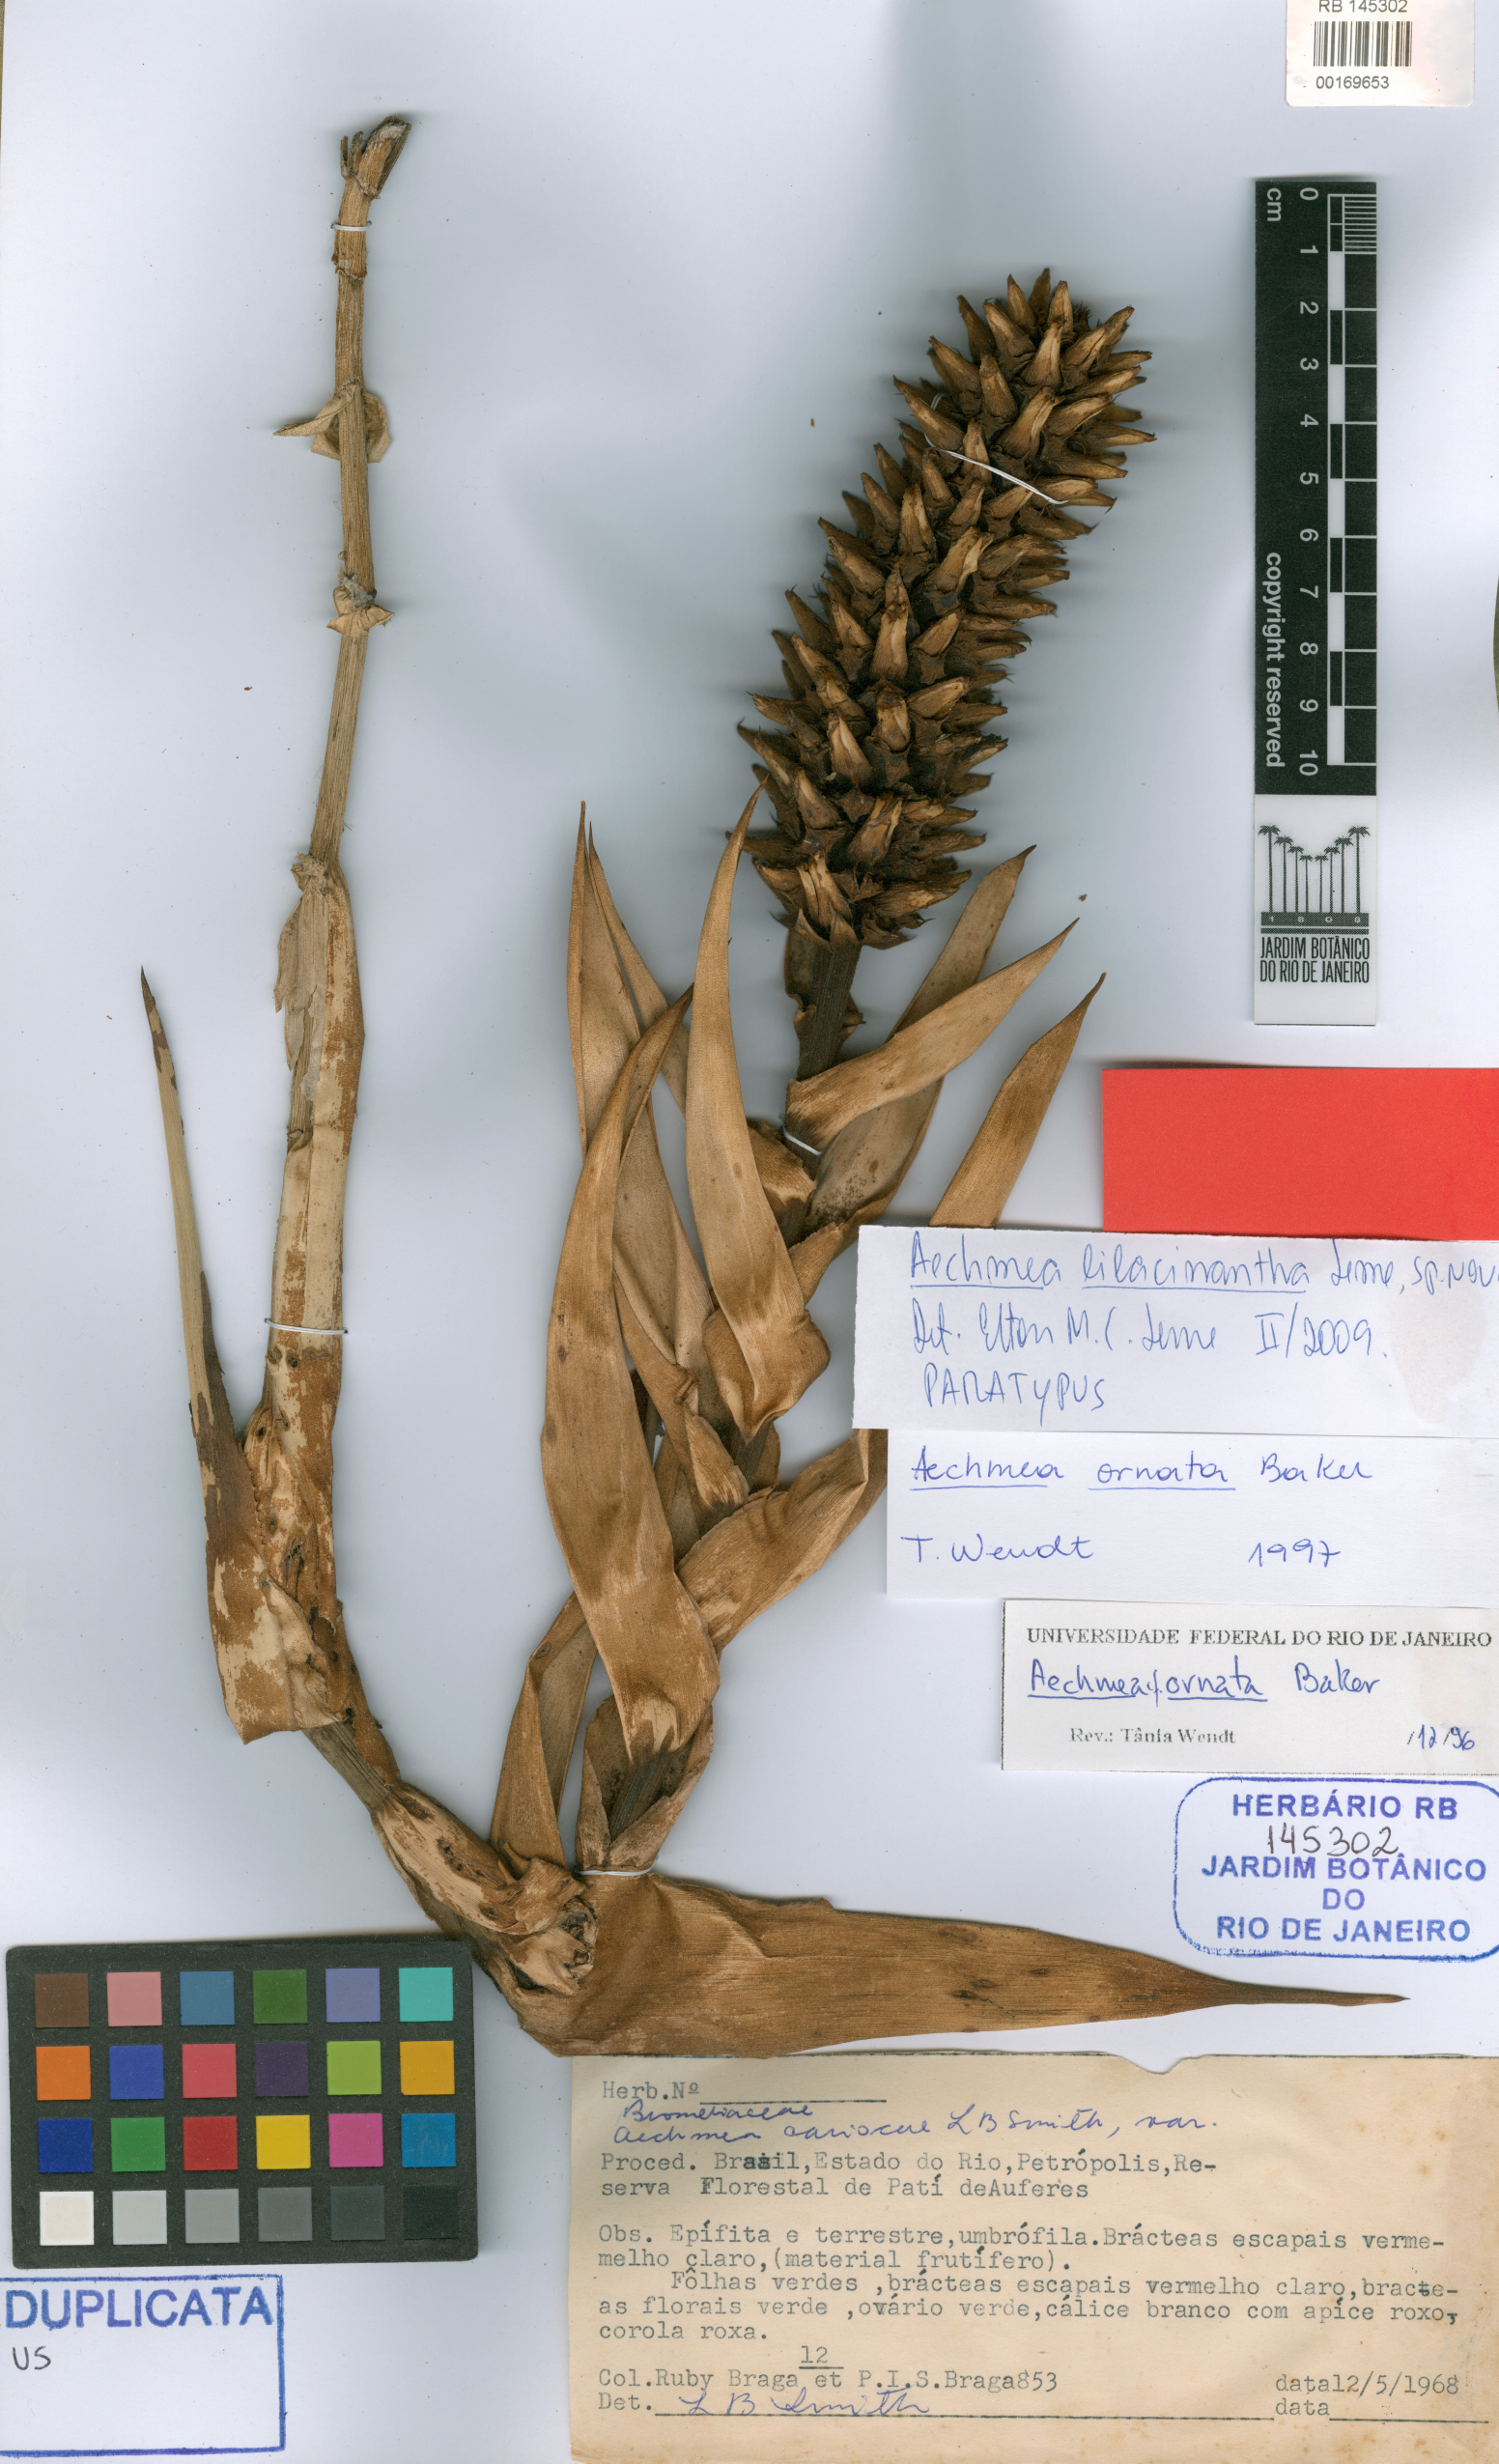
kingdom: Plantae
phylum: Tracheophyta
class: Liliopsida
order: Poales
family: Bromeliaceae
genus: Aechmea
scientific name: Aechmea lilacinantha
